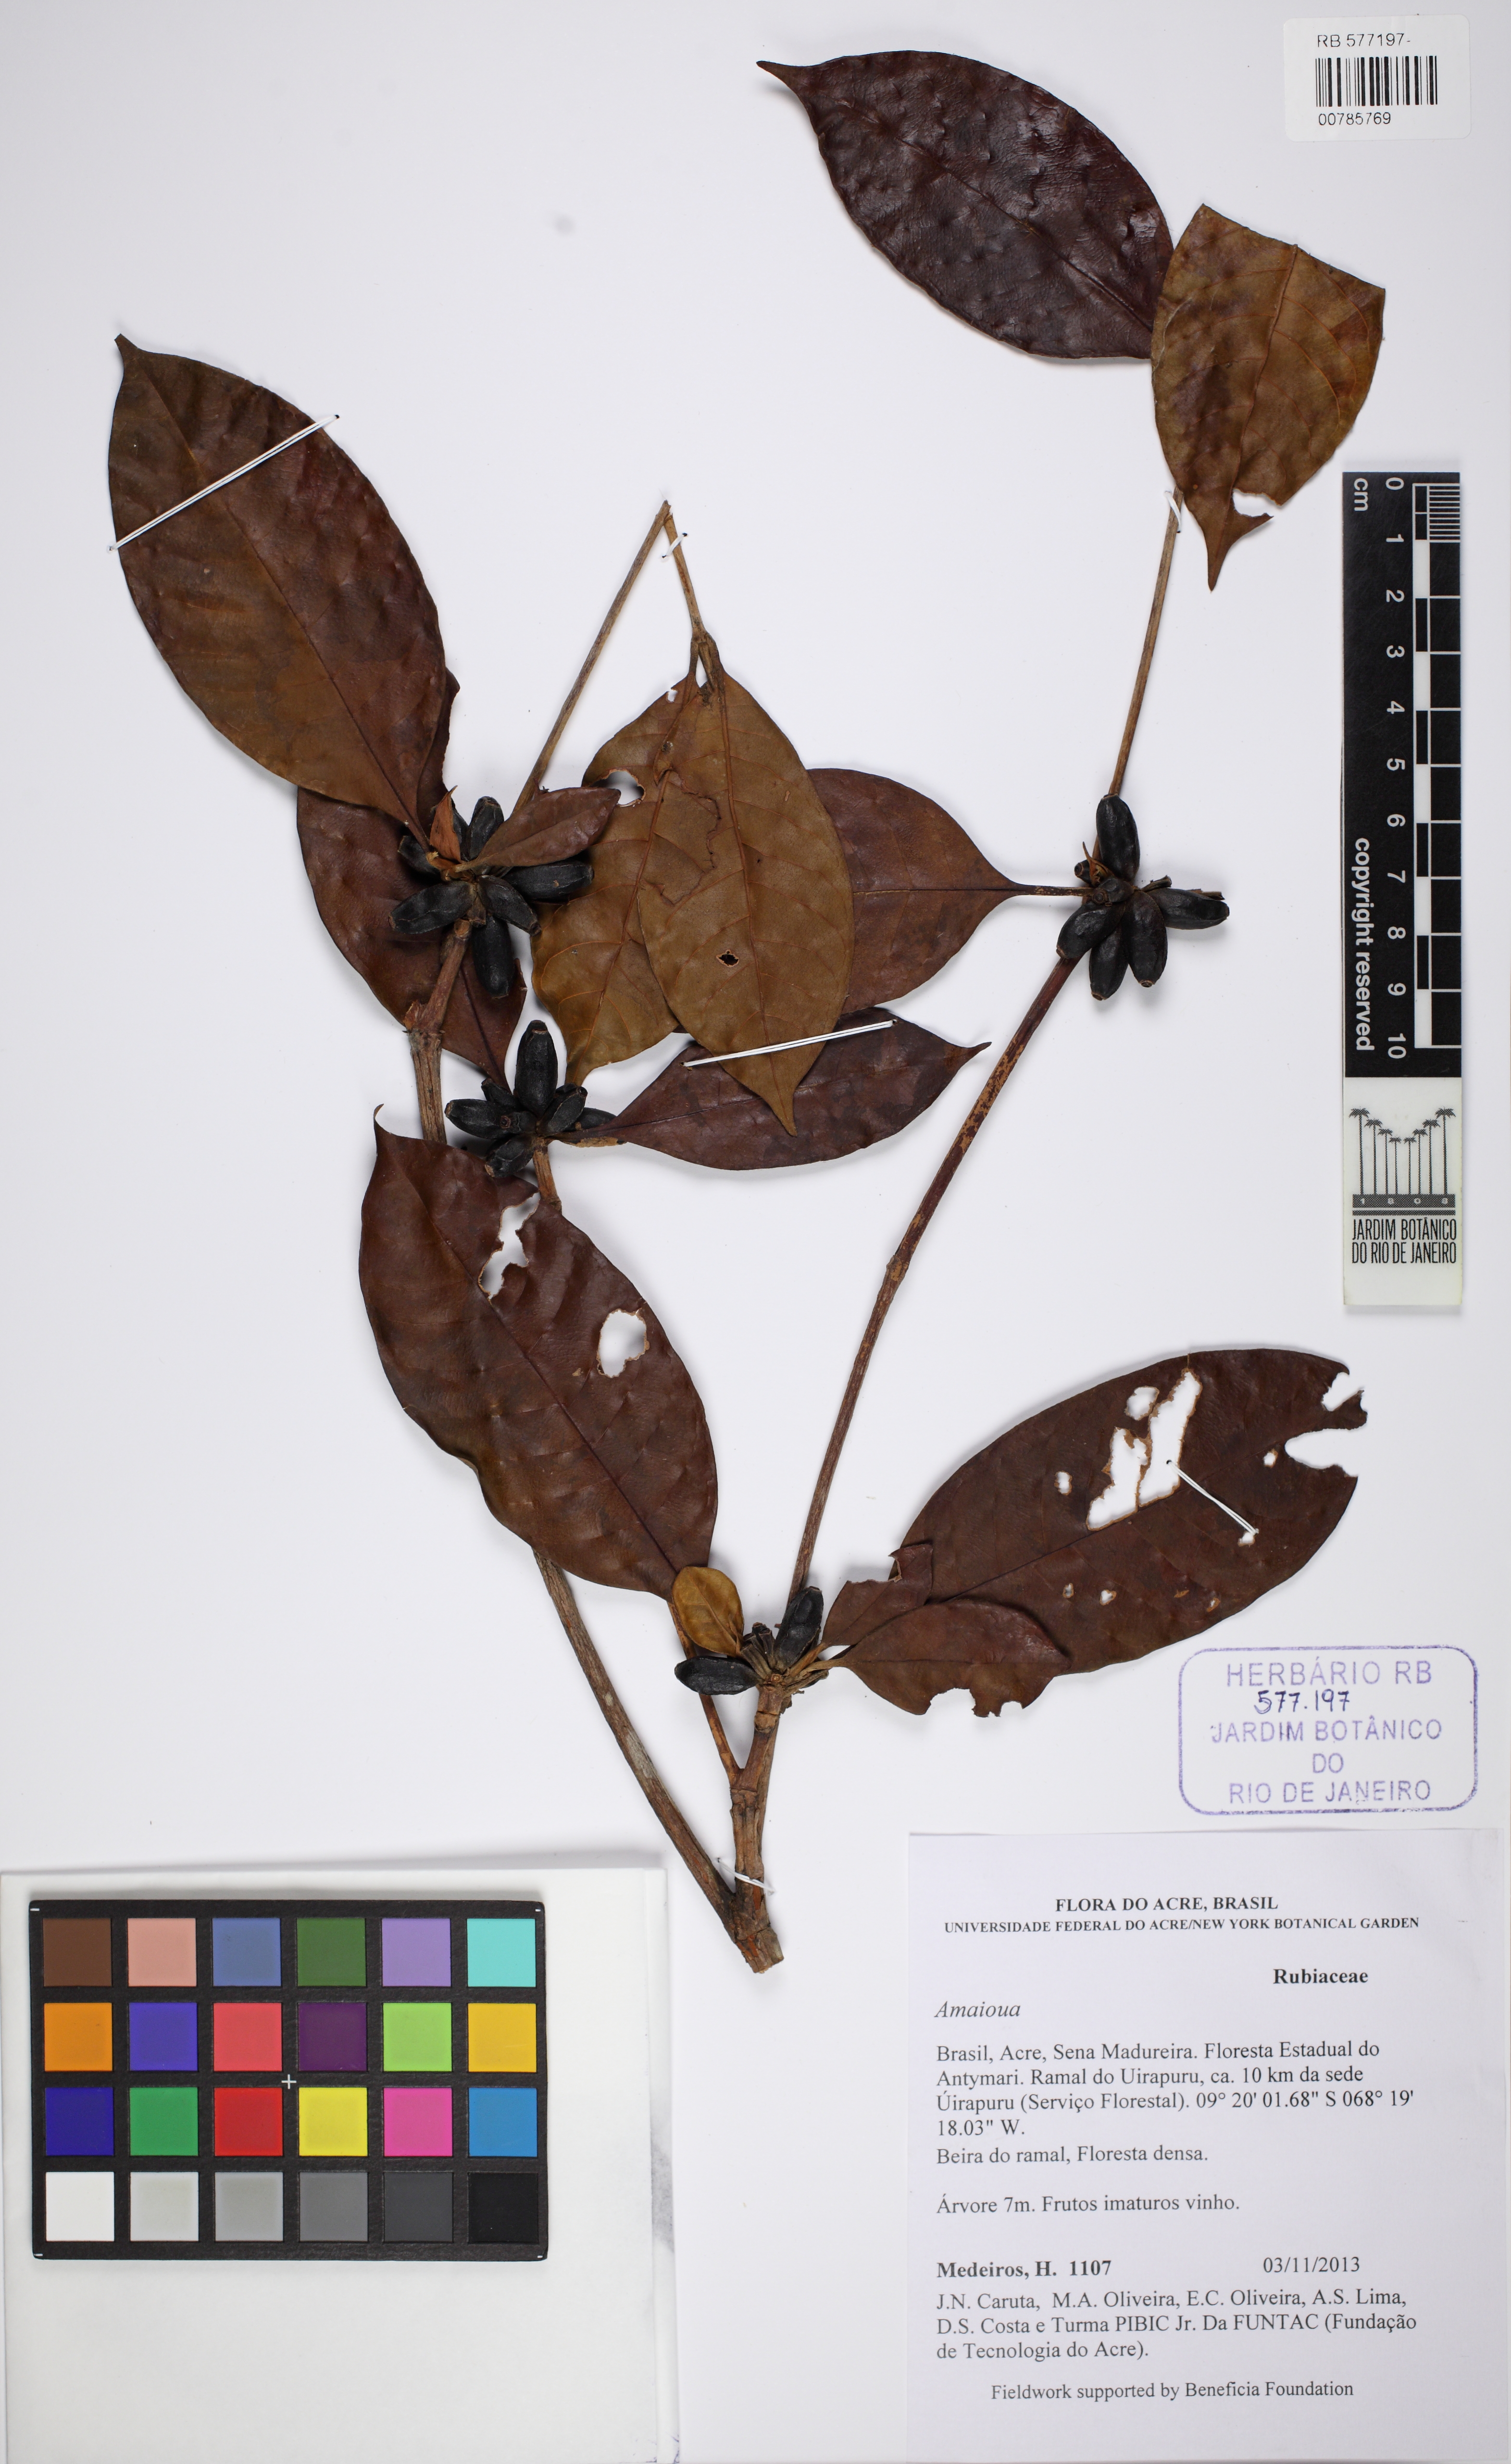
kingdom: Plantae
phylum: Tracheophyta
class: Magnoliopsida
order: Gentianales
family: Rubiaceae
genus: Amaioua
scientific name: Amaioua guianensis
